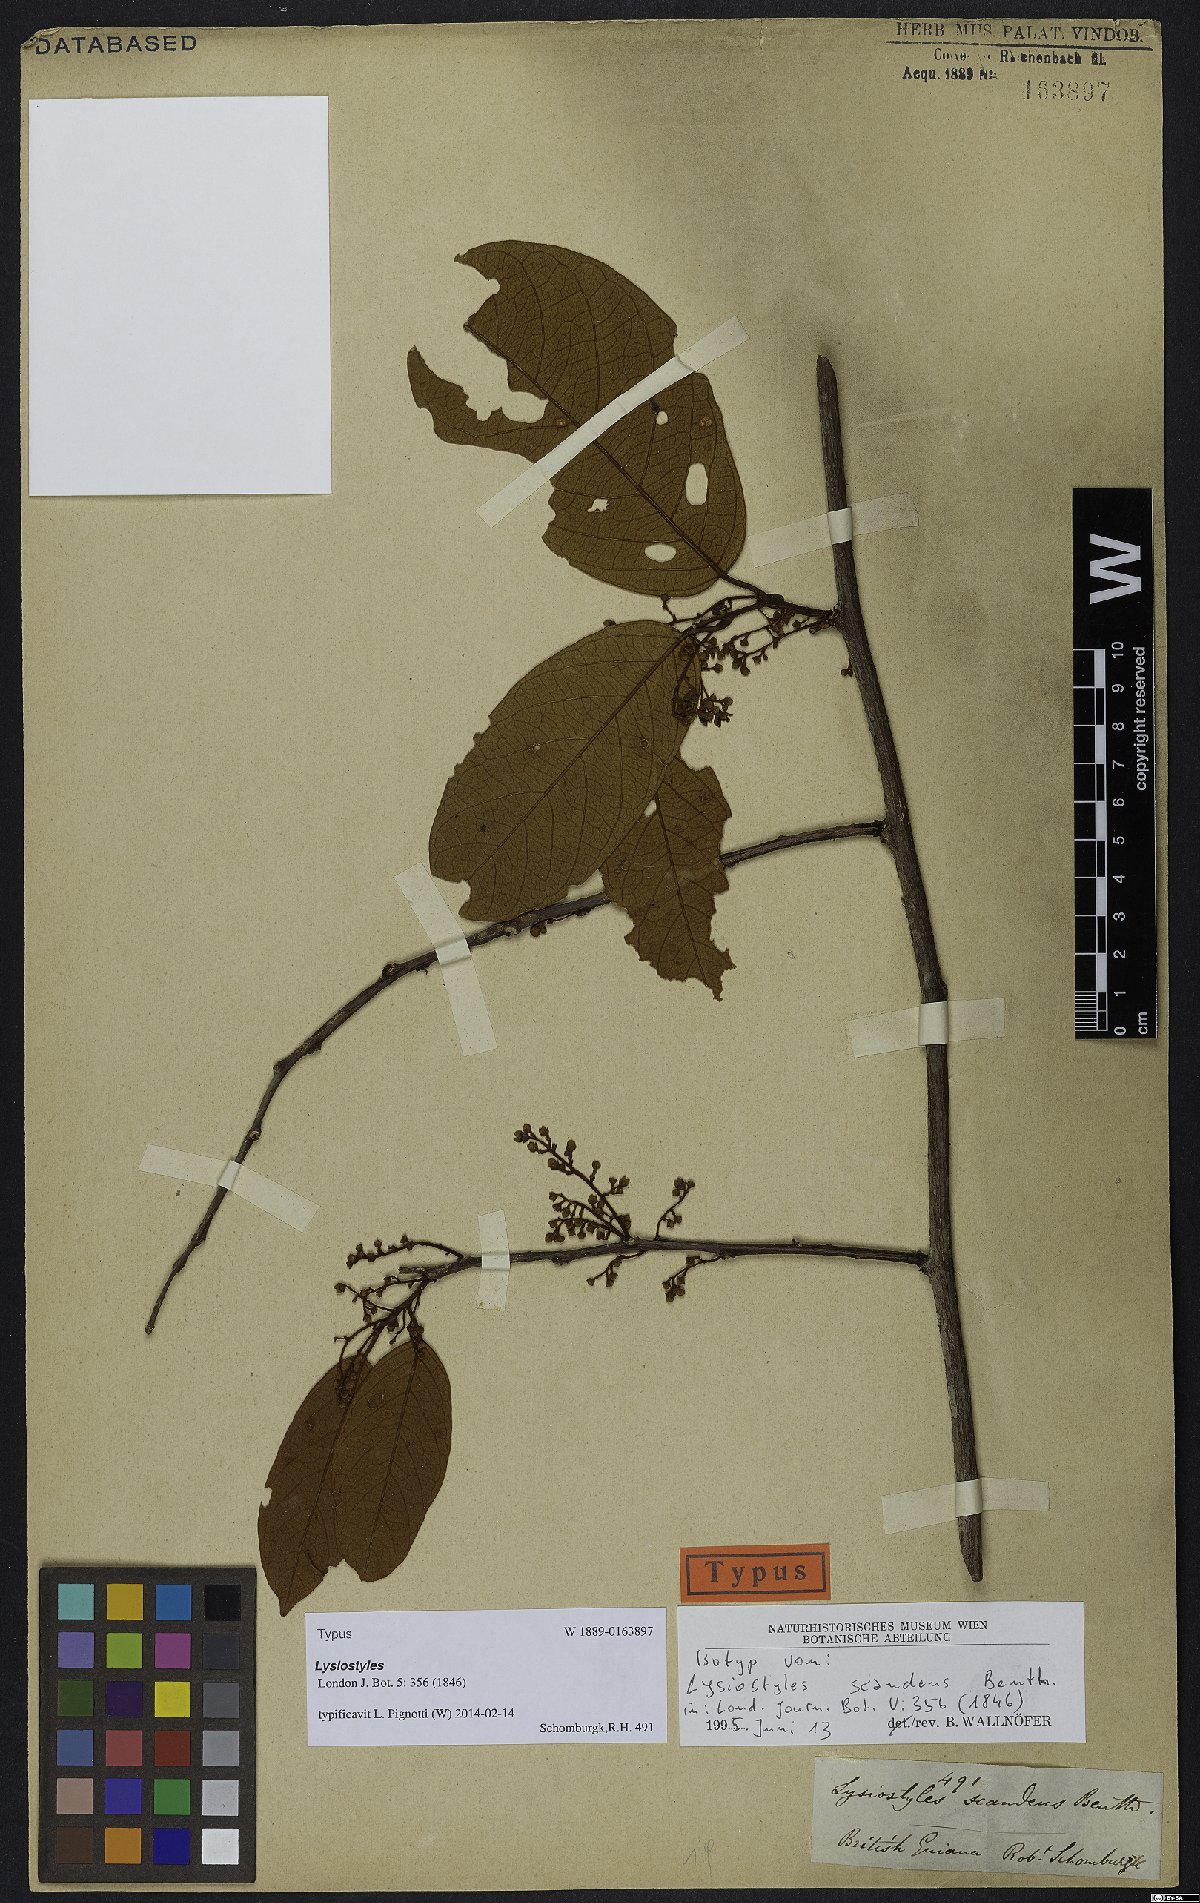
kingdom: Plantae
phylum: Tracheophyta
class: Magnoliopsida
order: Solanales
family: Convolvulaceae
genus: Lysiostyles
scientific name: Lysiostyles scandens
